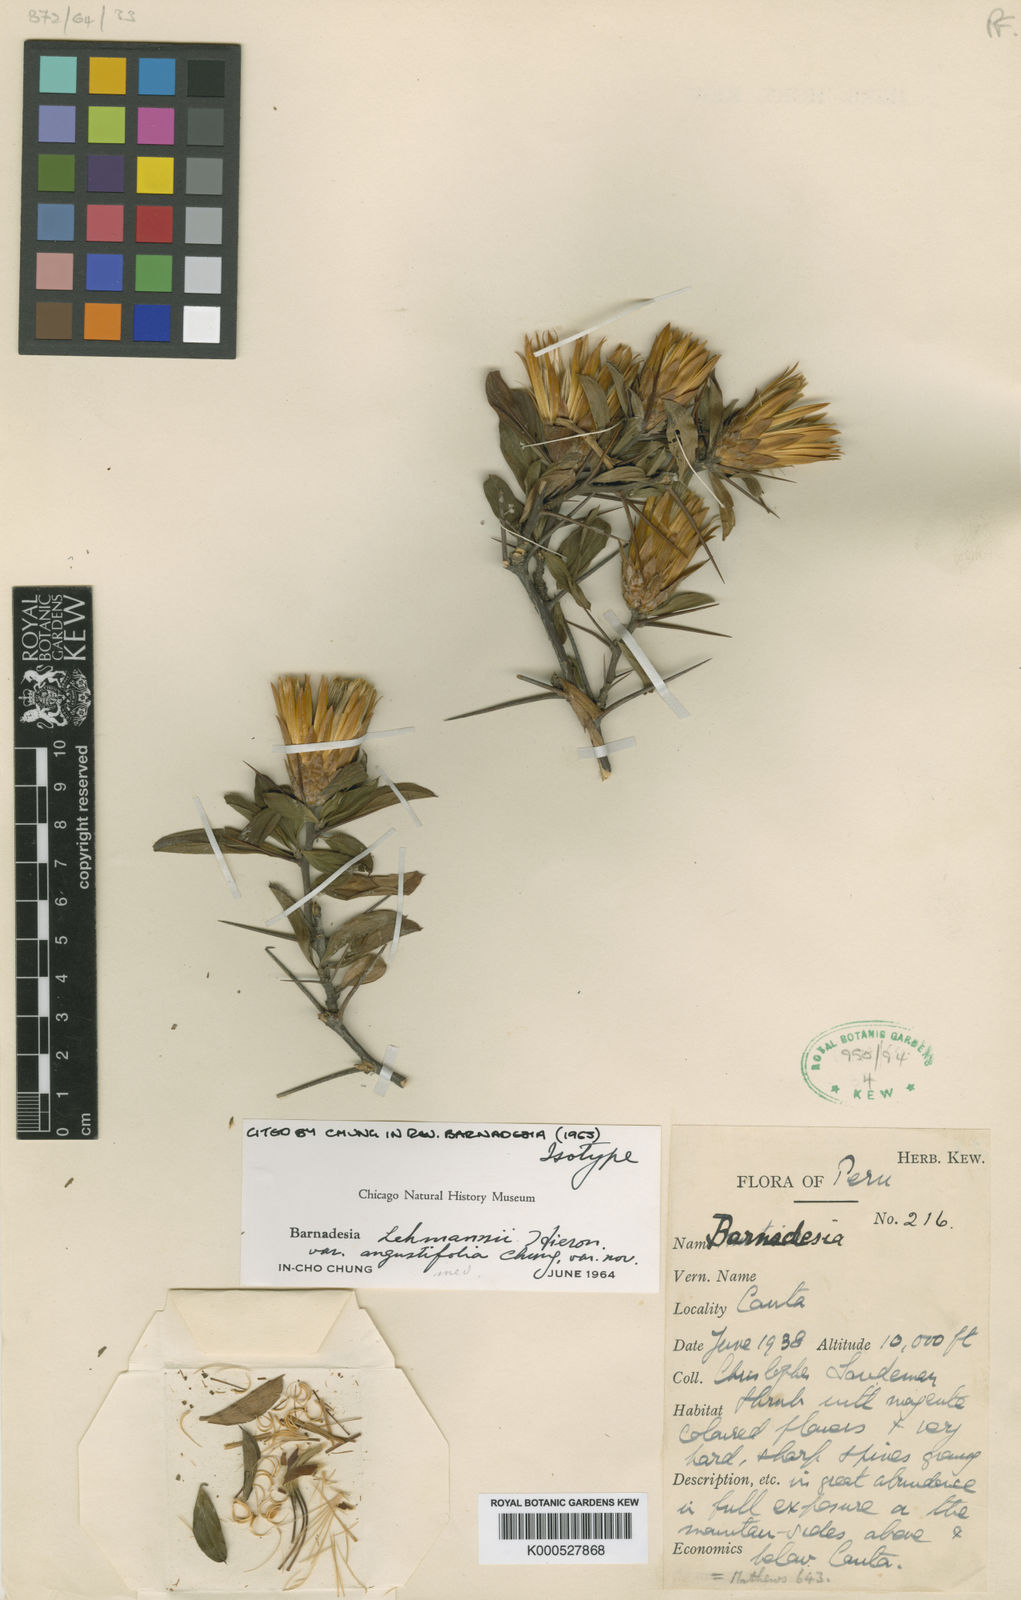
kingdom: Plantae
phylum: Tracheophyta
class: Magnoliopsida
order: Asterales
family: Asteraceae
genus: Barnadesia
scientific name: Barnadesia lehmannii
